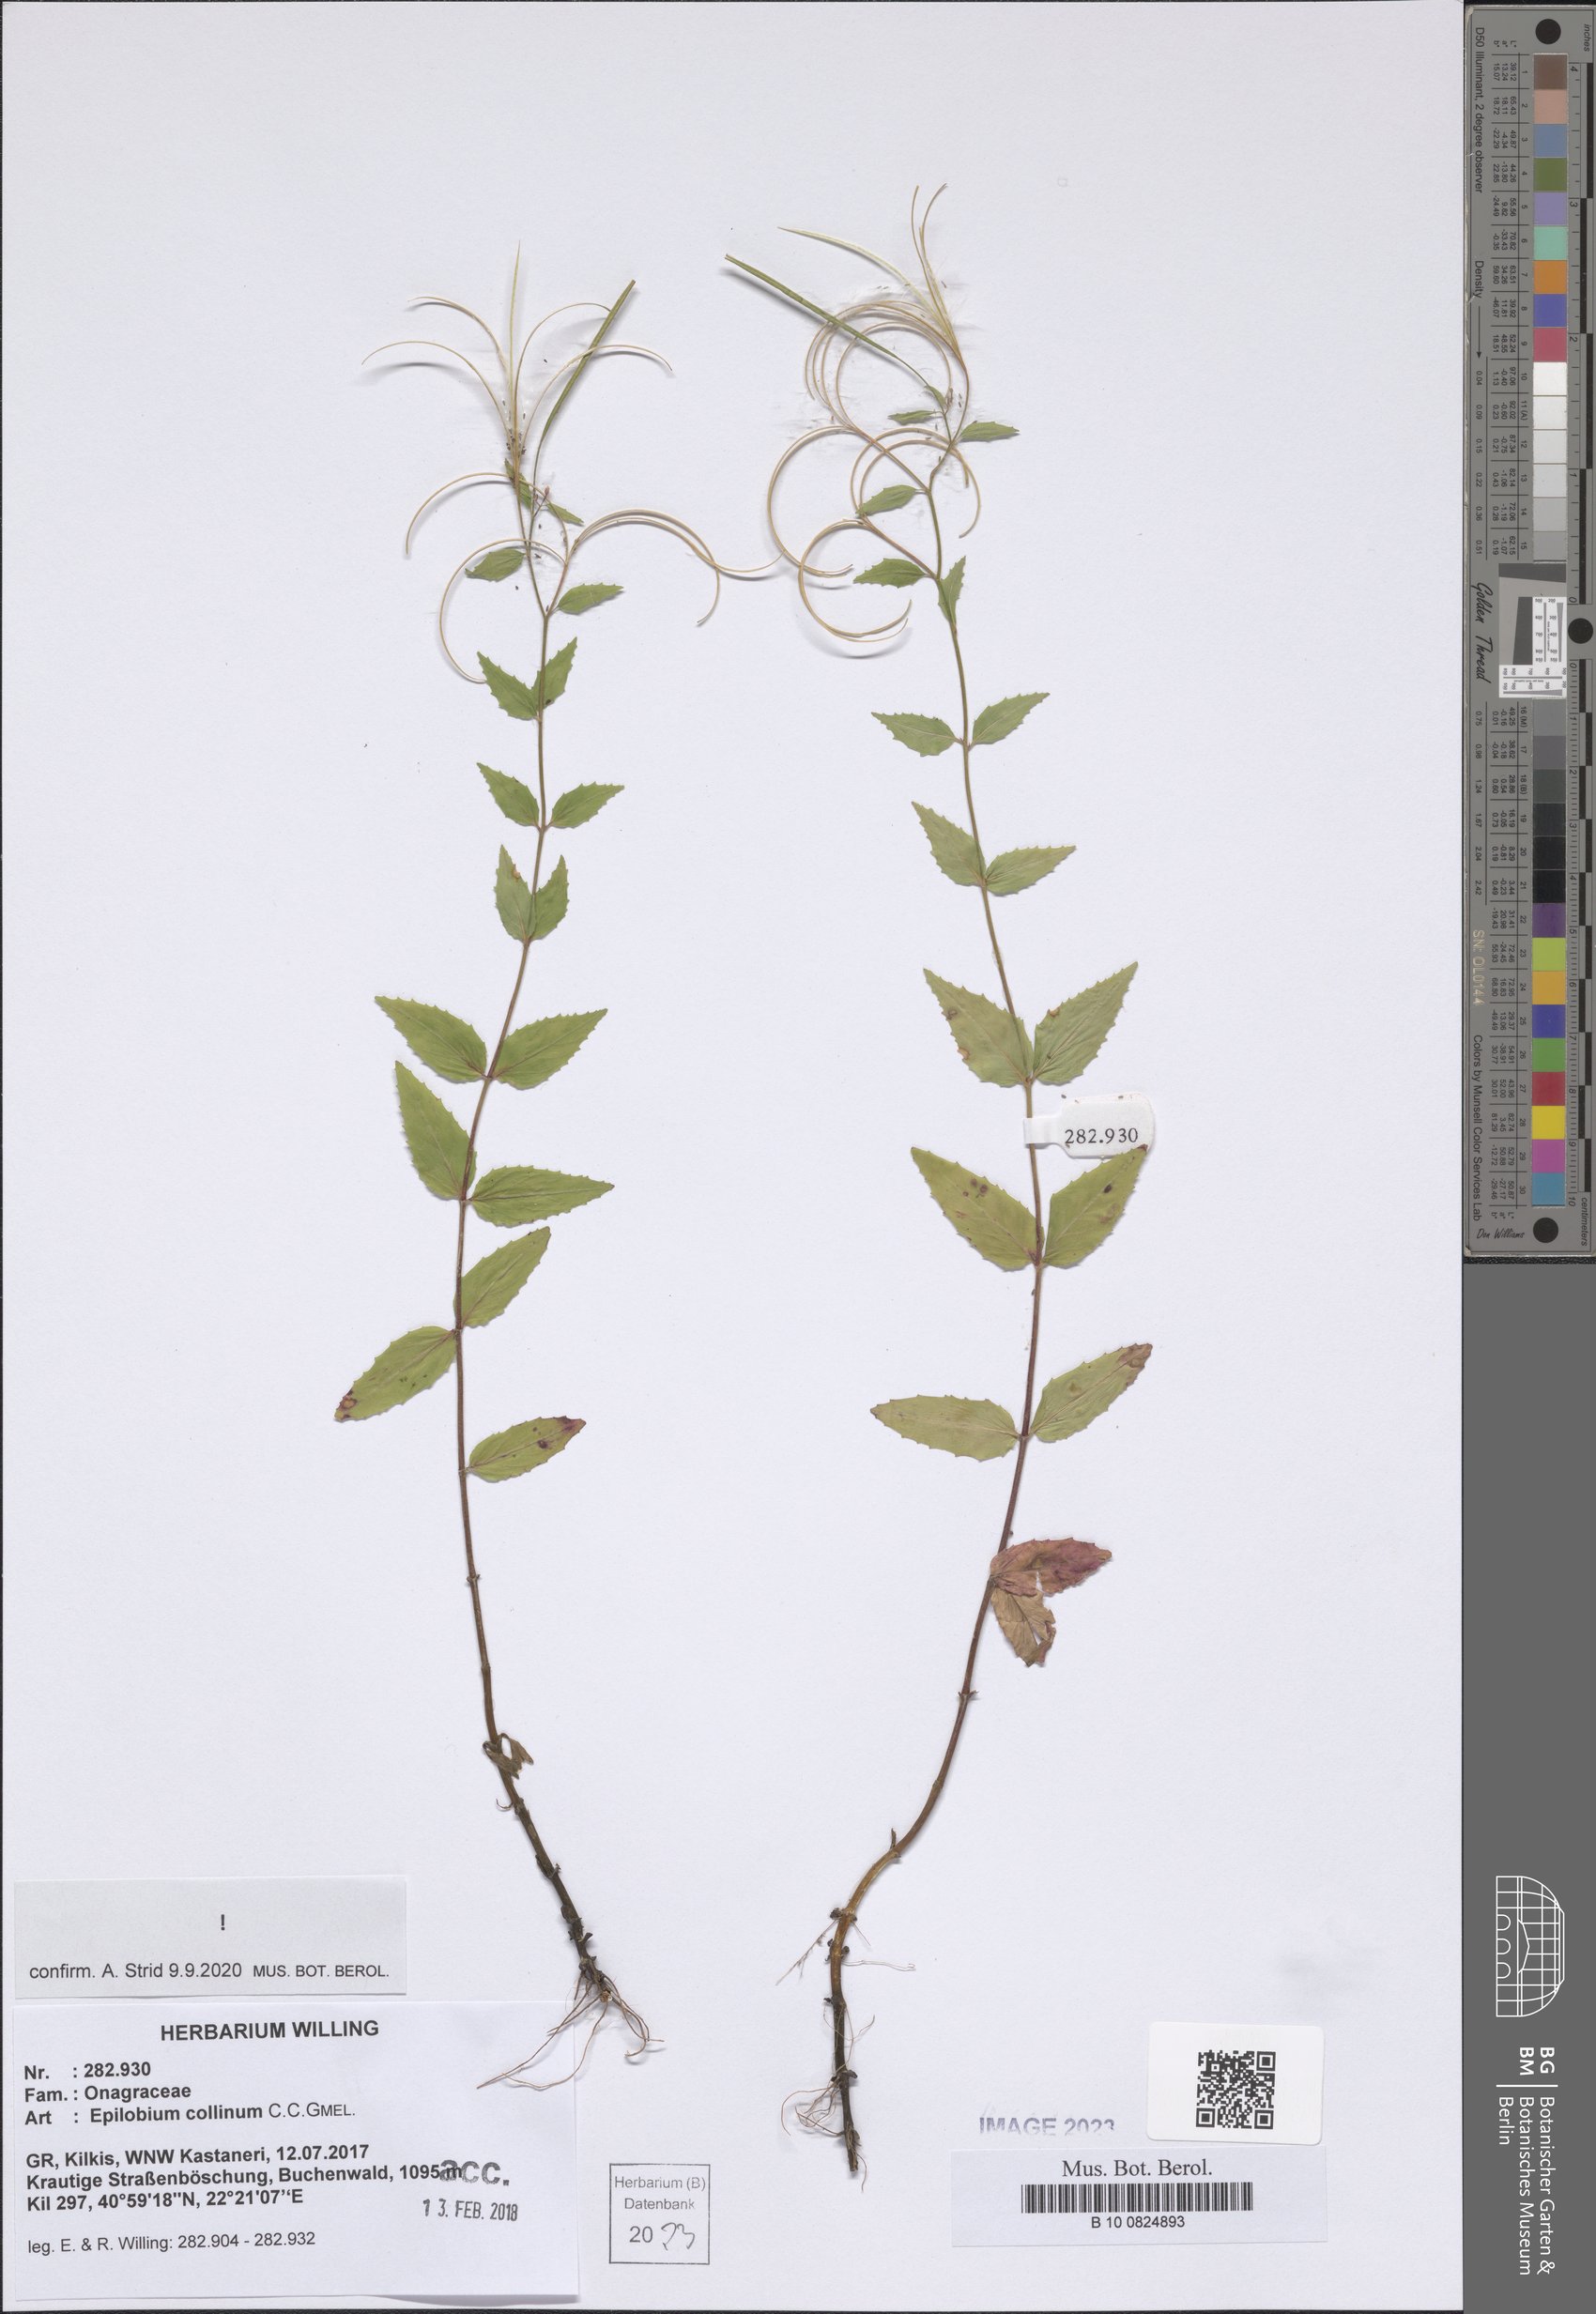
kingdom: Plantae
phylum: Tracheophyta
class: Magnoliopsida
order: Myrtales
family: Onagraceae
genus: Epilobium
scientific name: Epilobium collinum
